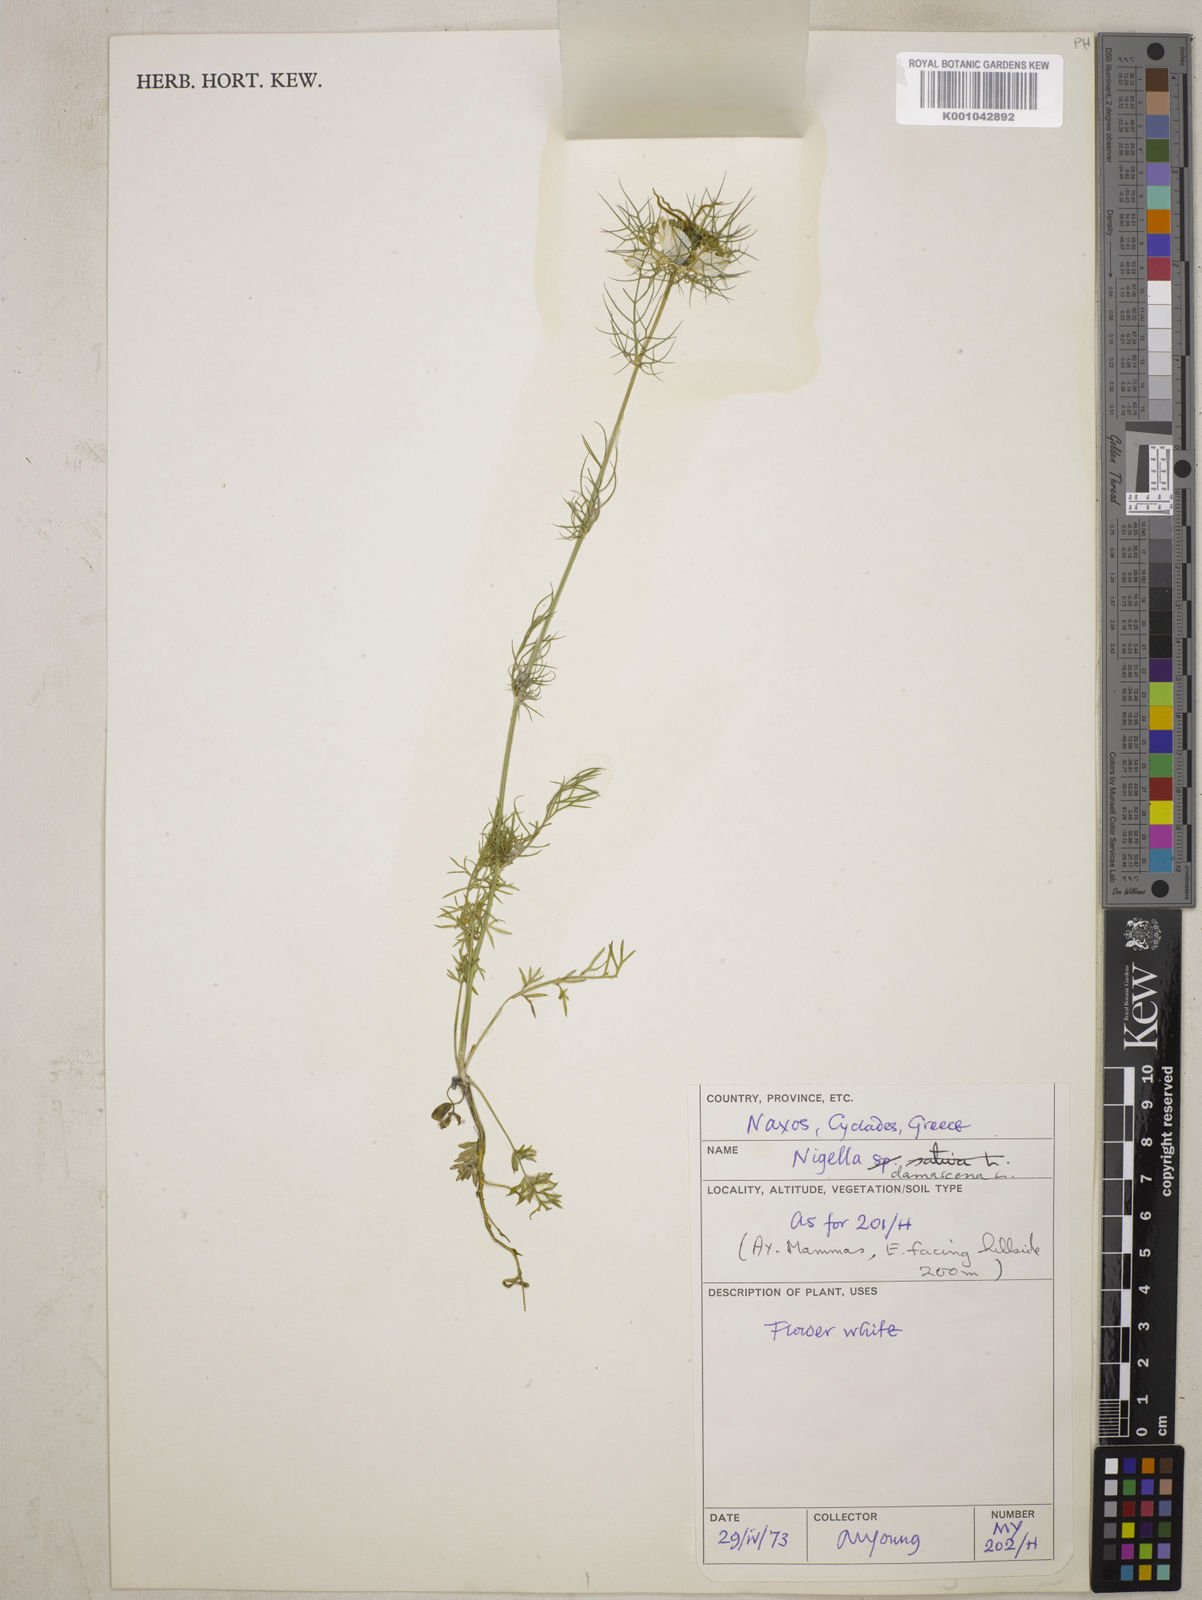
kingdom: Plantae
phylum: Tracheophyta
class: Magnoliopsida
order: Ranunculales
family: Ranunculaceae
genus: Nigella
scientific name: Nigella damascena
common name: Love-in-a-mist
